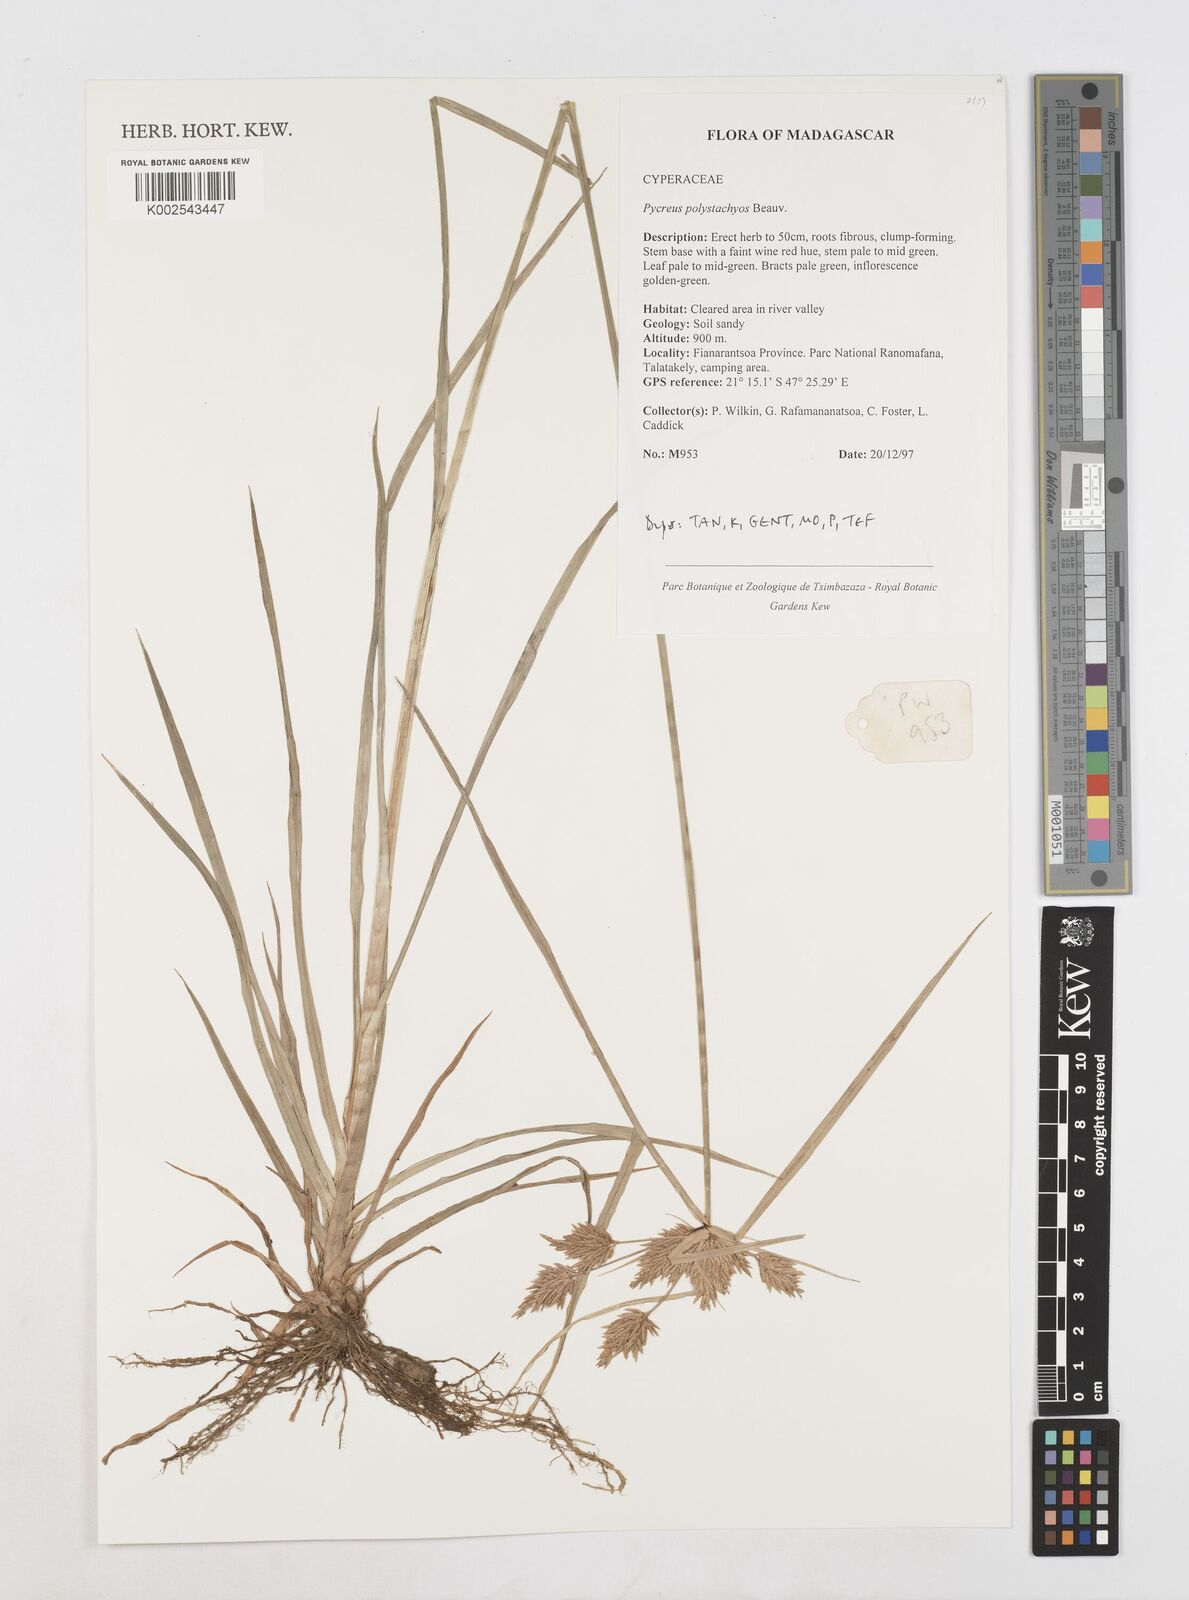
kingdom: Plantae
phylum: Tracheophyta
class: Liliopsida
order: Poales
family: Cyperaceae
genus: Cyperus
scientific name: Cyperus polystachyos
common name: Bunchy flat sedge
